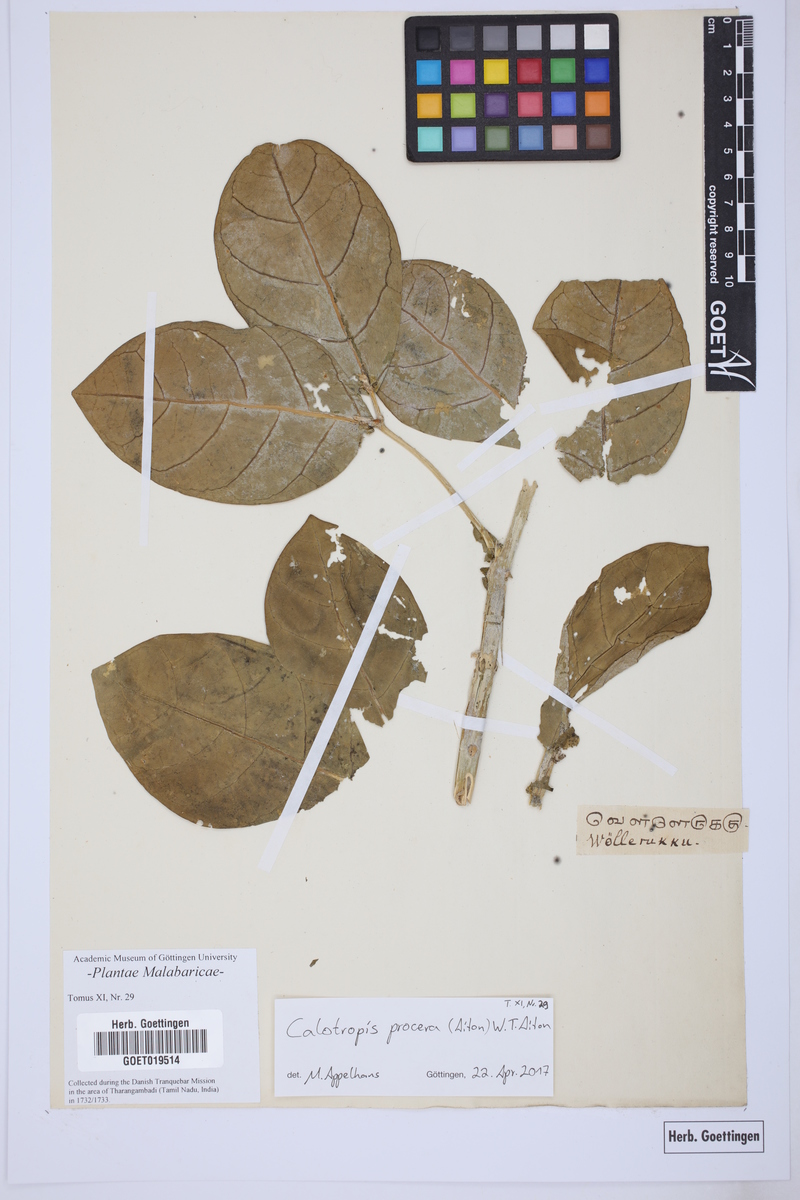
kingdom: Plantae
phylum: Tracheophyta
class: Magnoliopsida
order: Gentianales
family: Apocynaceae
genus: Calotropis
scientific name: Calotropis procera
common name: Roostertree
